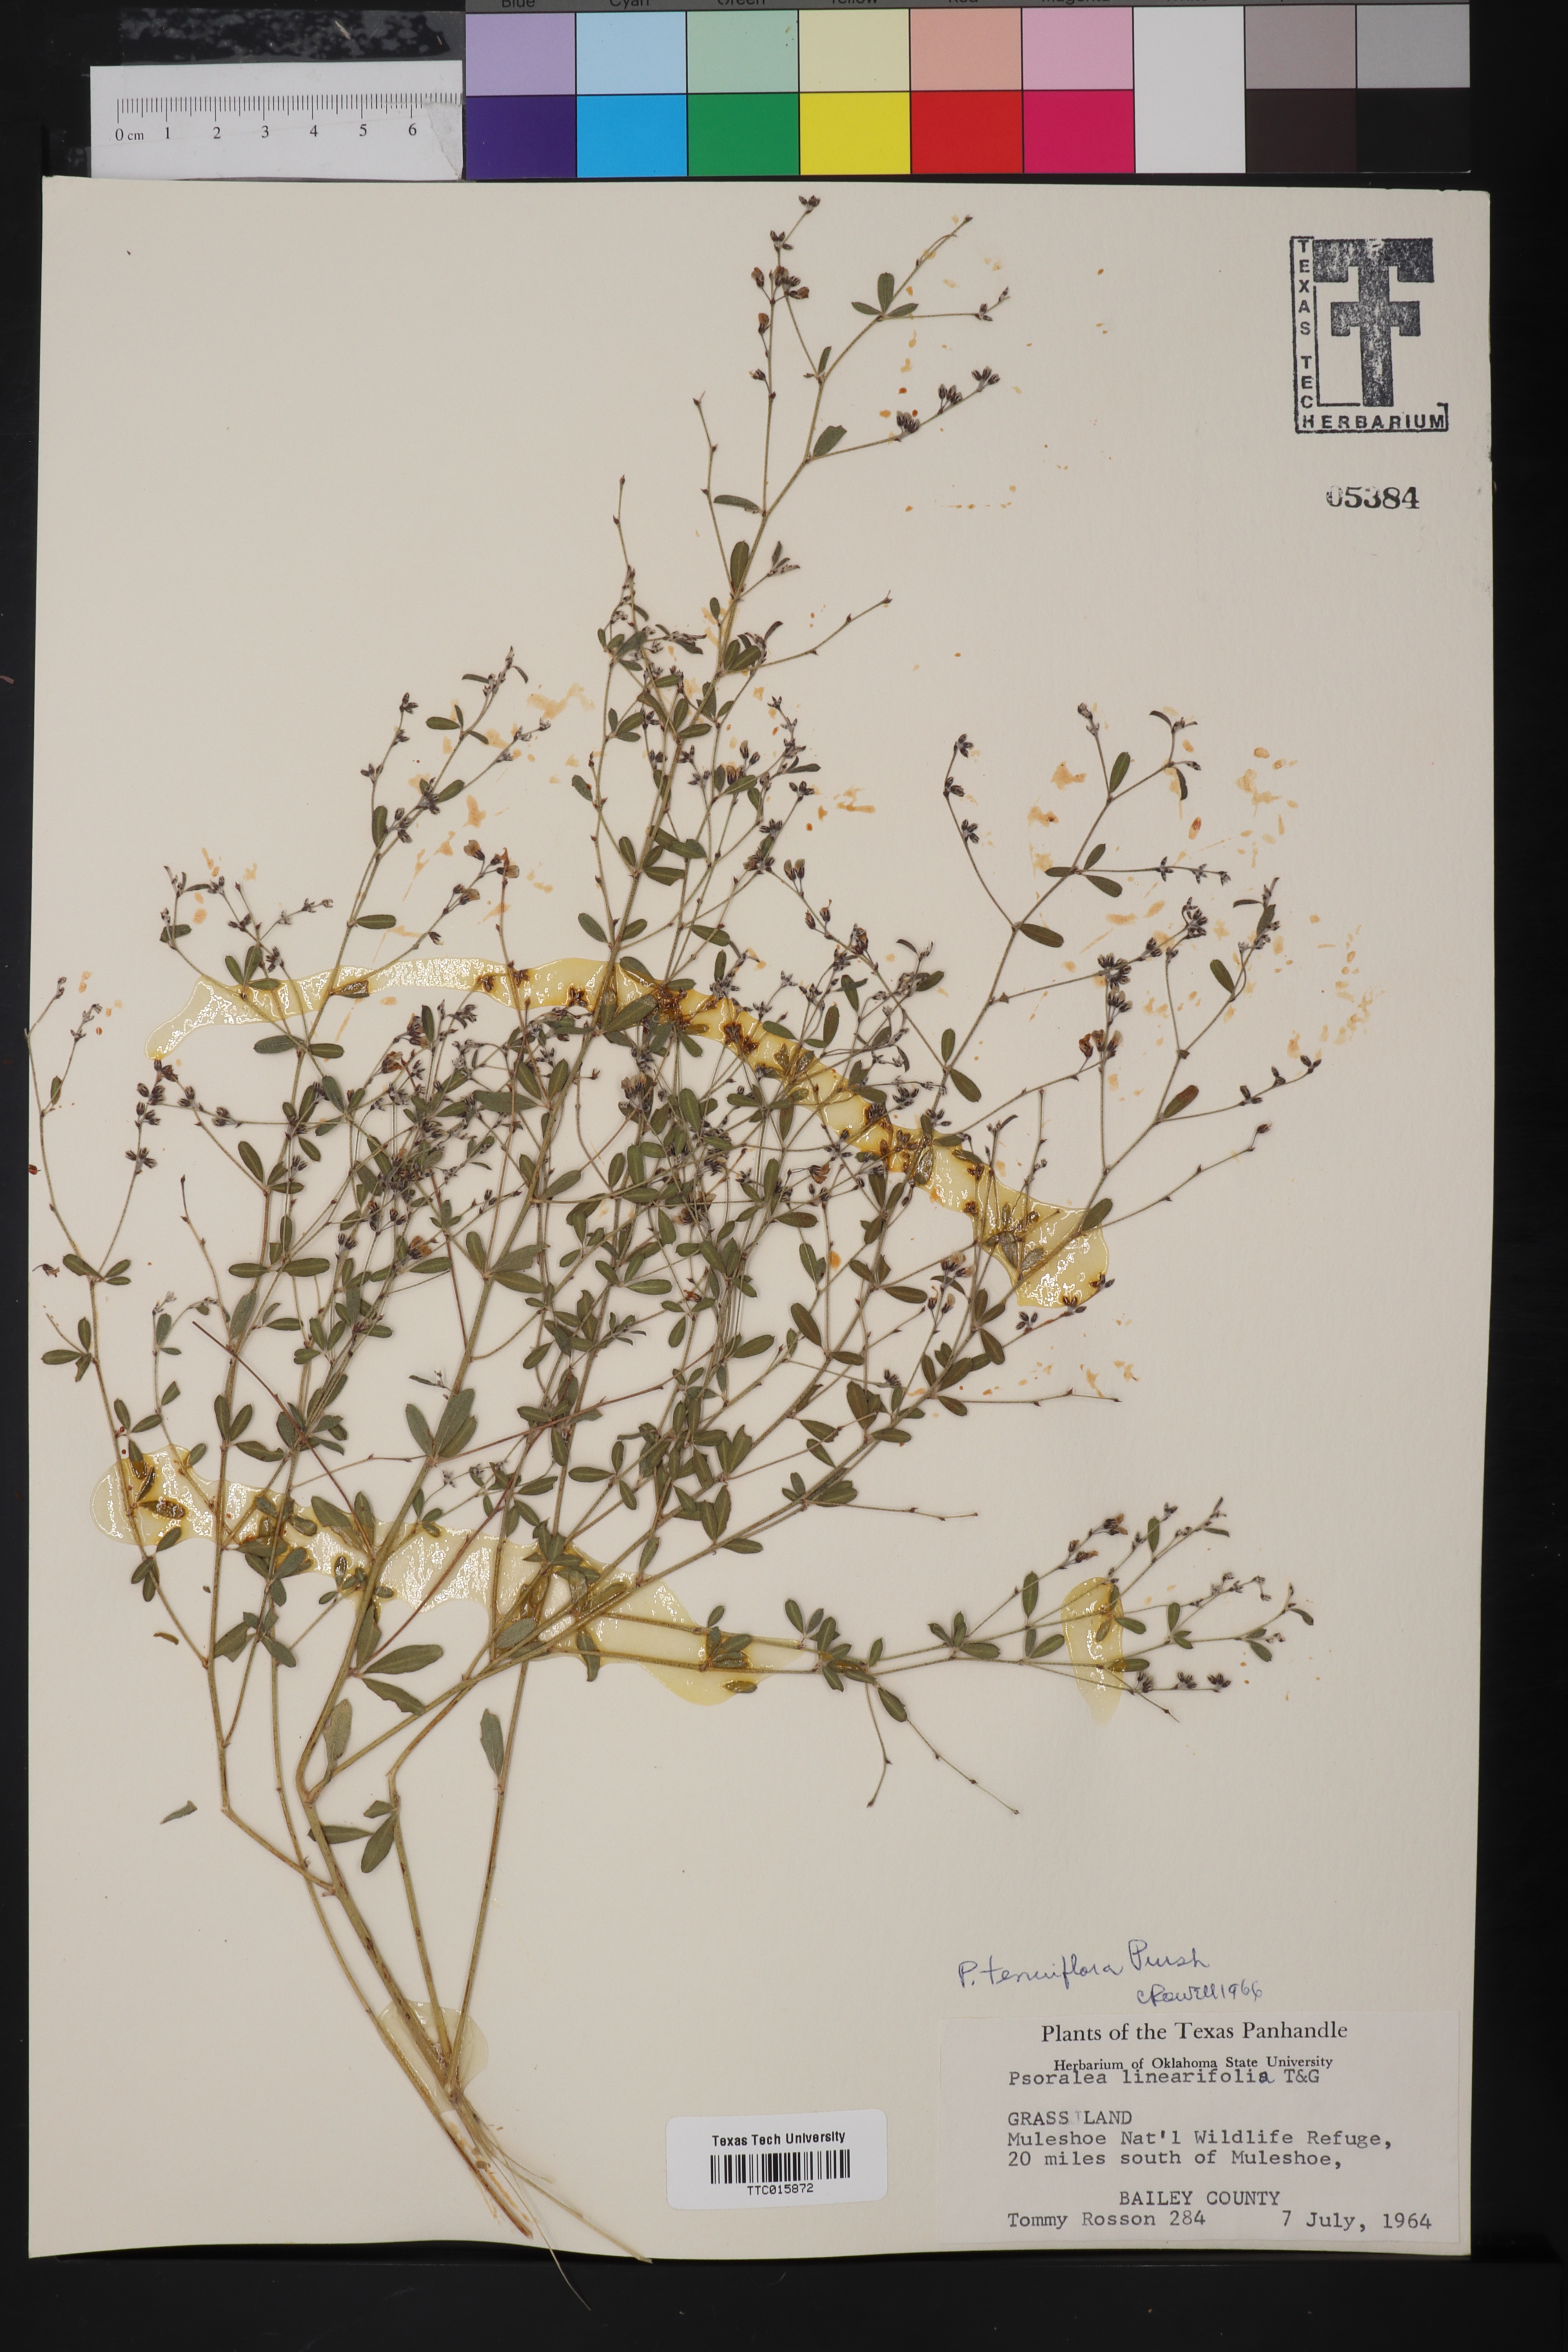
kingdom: Plantae
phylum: Tracheophyta
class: Magnoliopsida
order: Fabales
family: Fabaceae
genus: Pediomelum
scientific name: Pediomelum tenuiflorum
